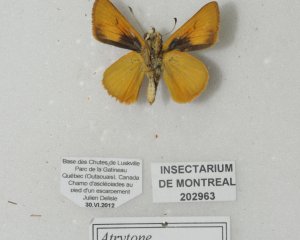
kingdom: Animalia
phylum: Arthropoda
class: Insecta
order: Lepidoptera
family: Hesperiidae
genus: Atrytone
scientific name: Atrytone delaware
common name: Delaware Skipper
